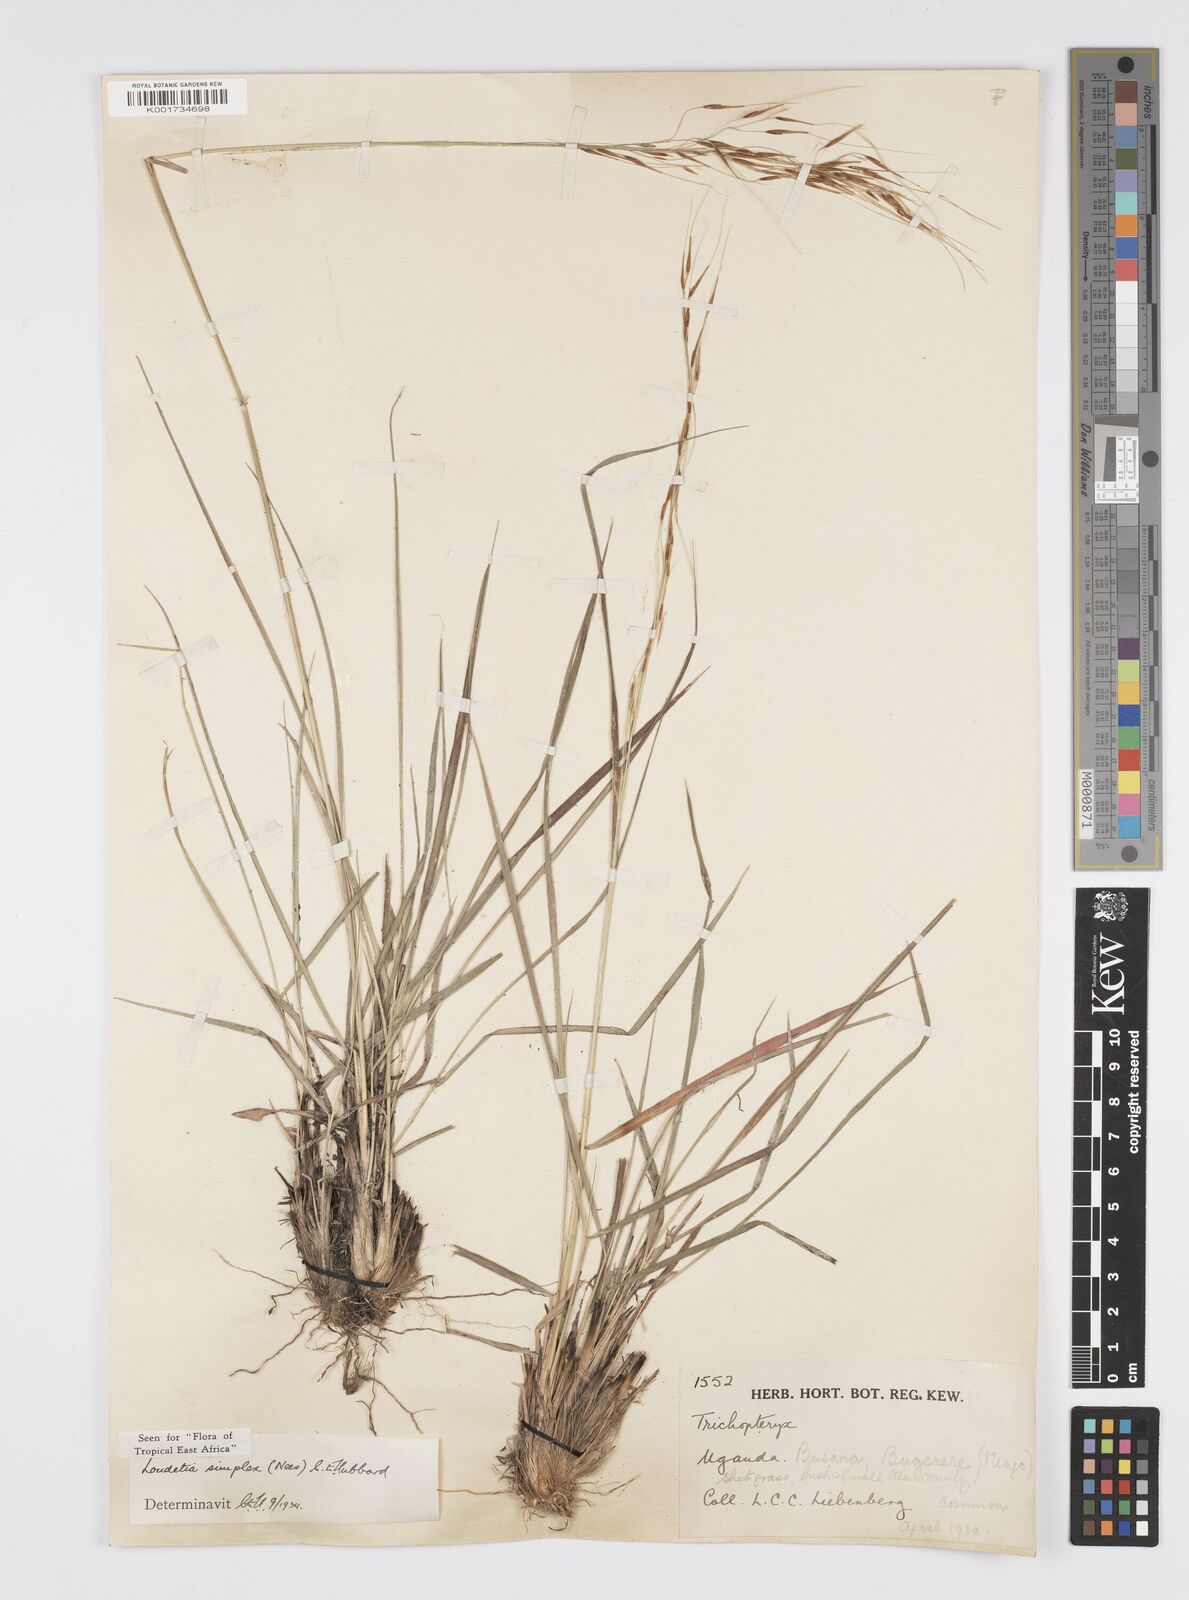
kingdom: Plantae
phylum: Tracheophyta
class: Liliopsida
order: Poales
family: Poaceae
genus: Loudetia
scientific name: Loudetia simplex
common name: Common russet grass
